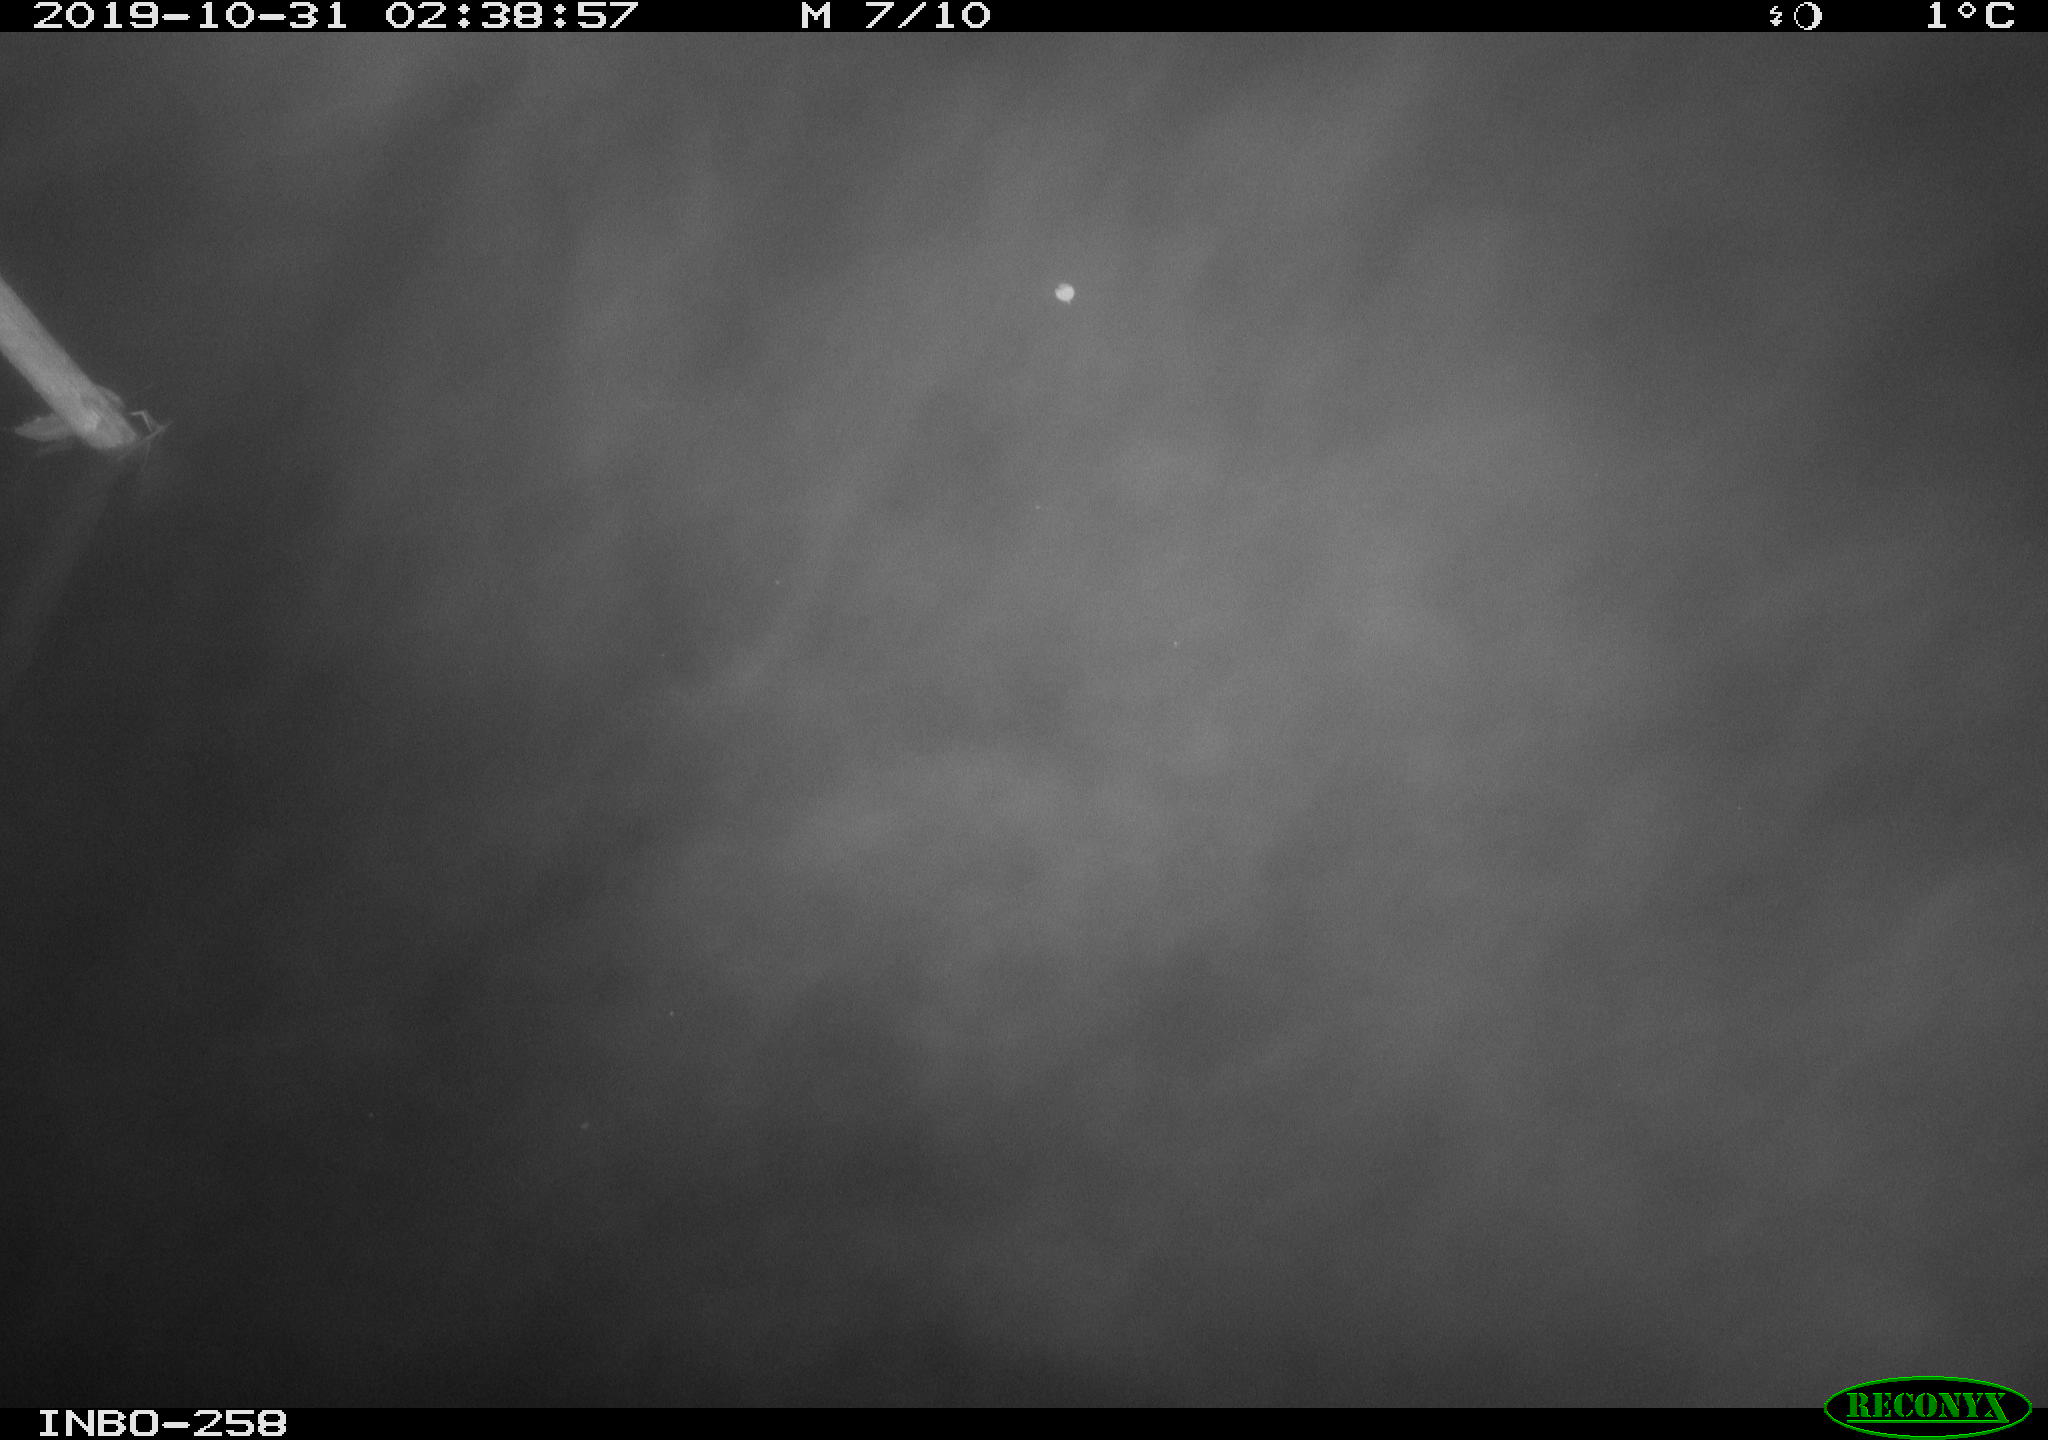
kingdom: Animalia
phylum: Chordata
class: Aves
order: Anseriformes
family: Anatidae
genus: Anas
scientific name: Anas platyrhynchos
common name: Mallard
